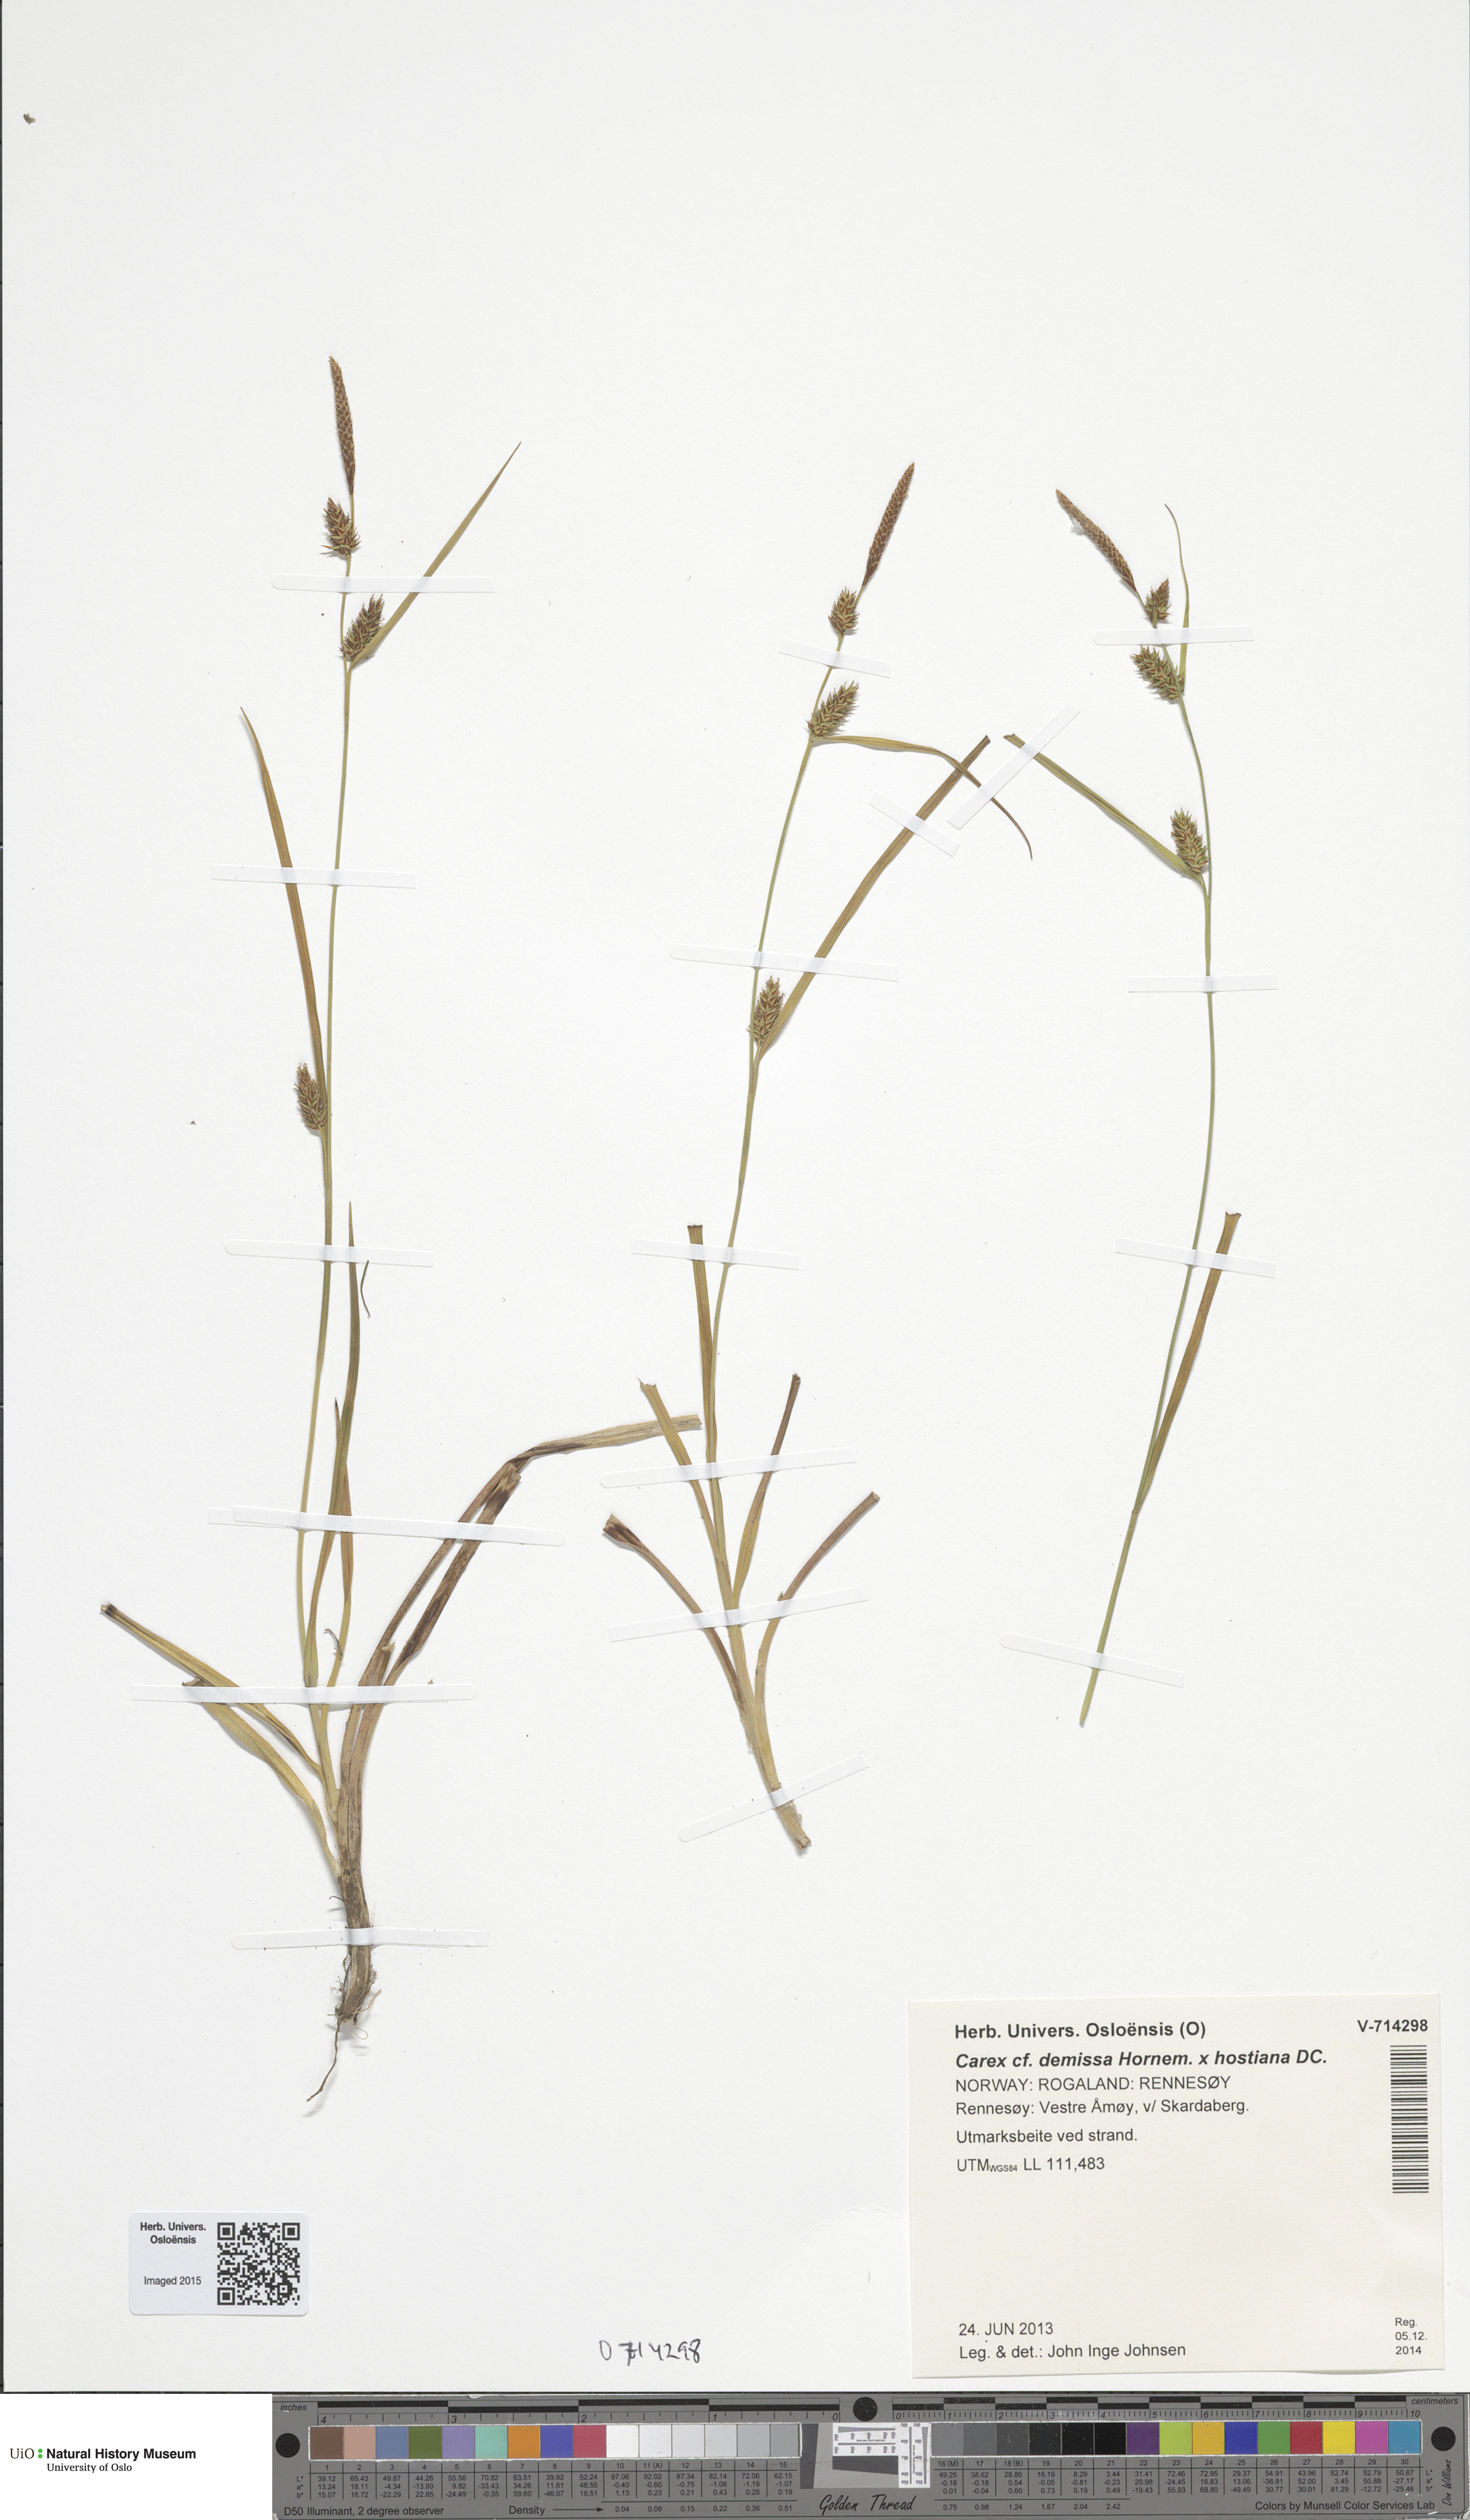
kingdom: Plantae
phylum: Tracheophyta
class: Liliopsida
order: Poales
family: Cyperaceae
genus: Carex
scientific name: Carex
